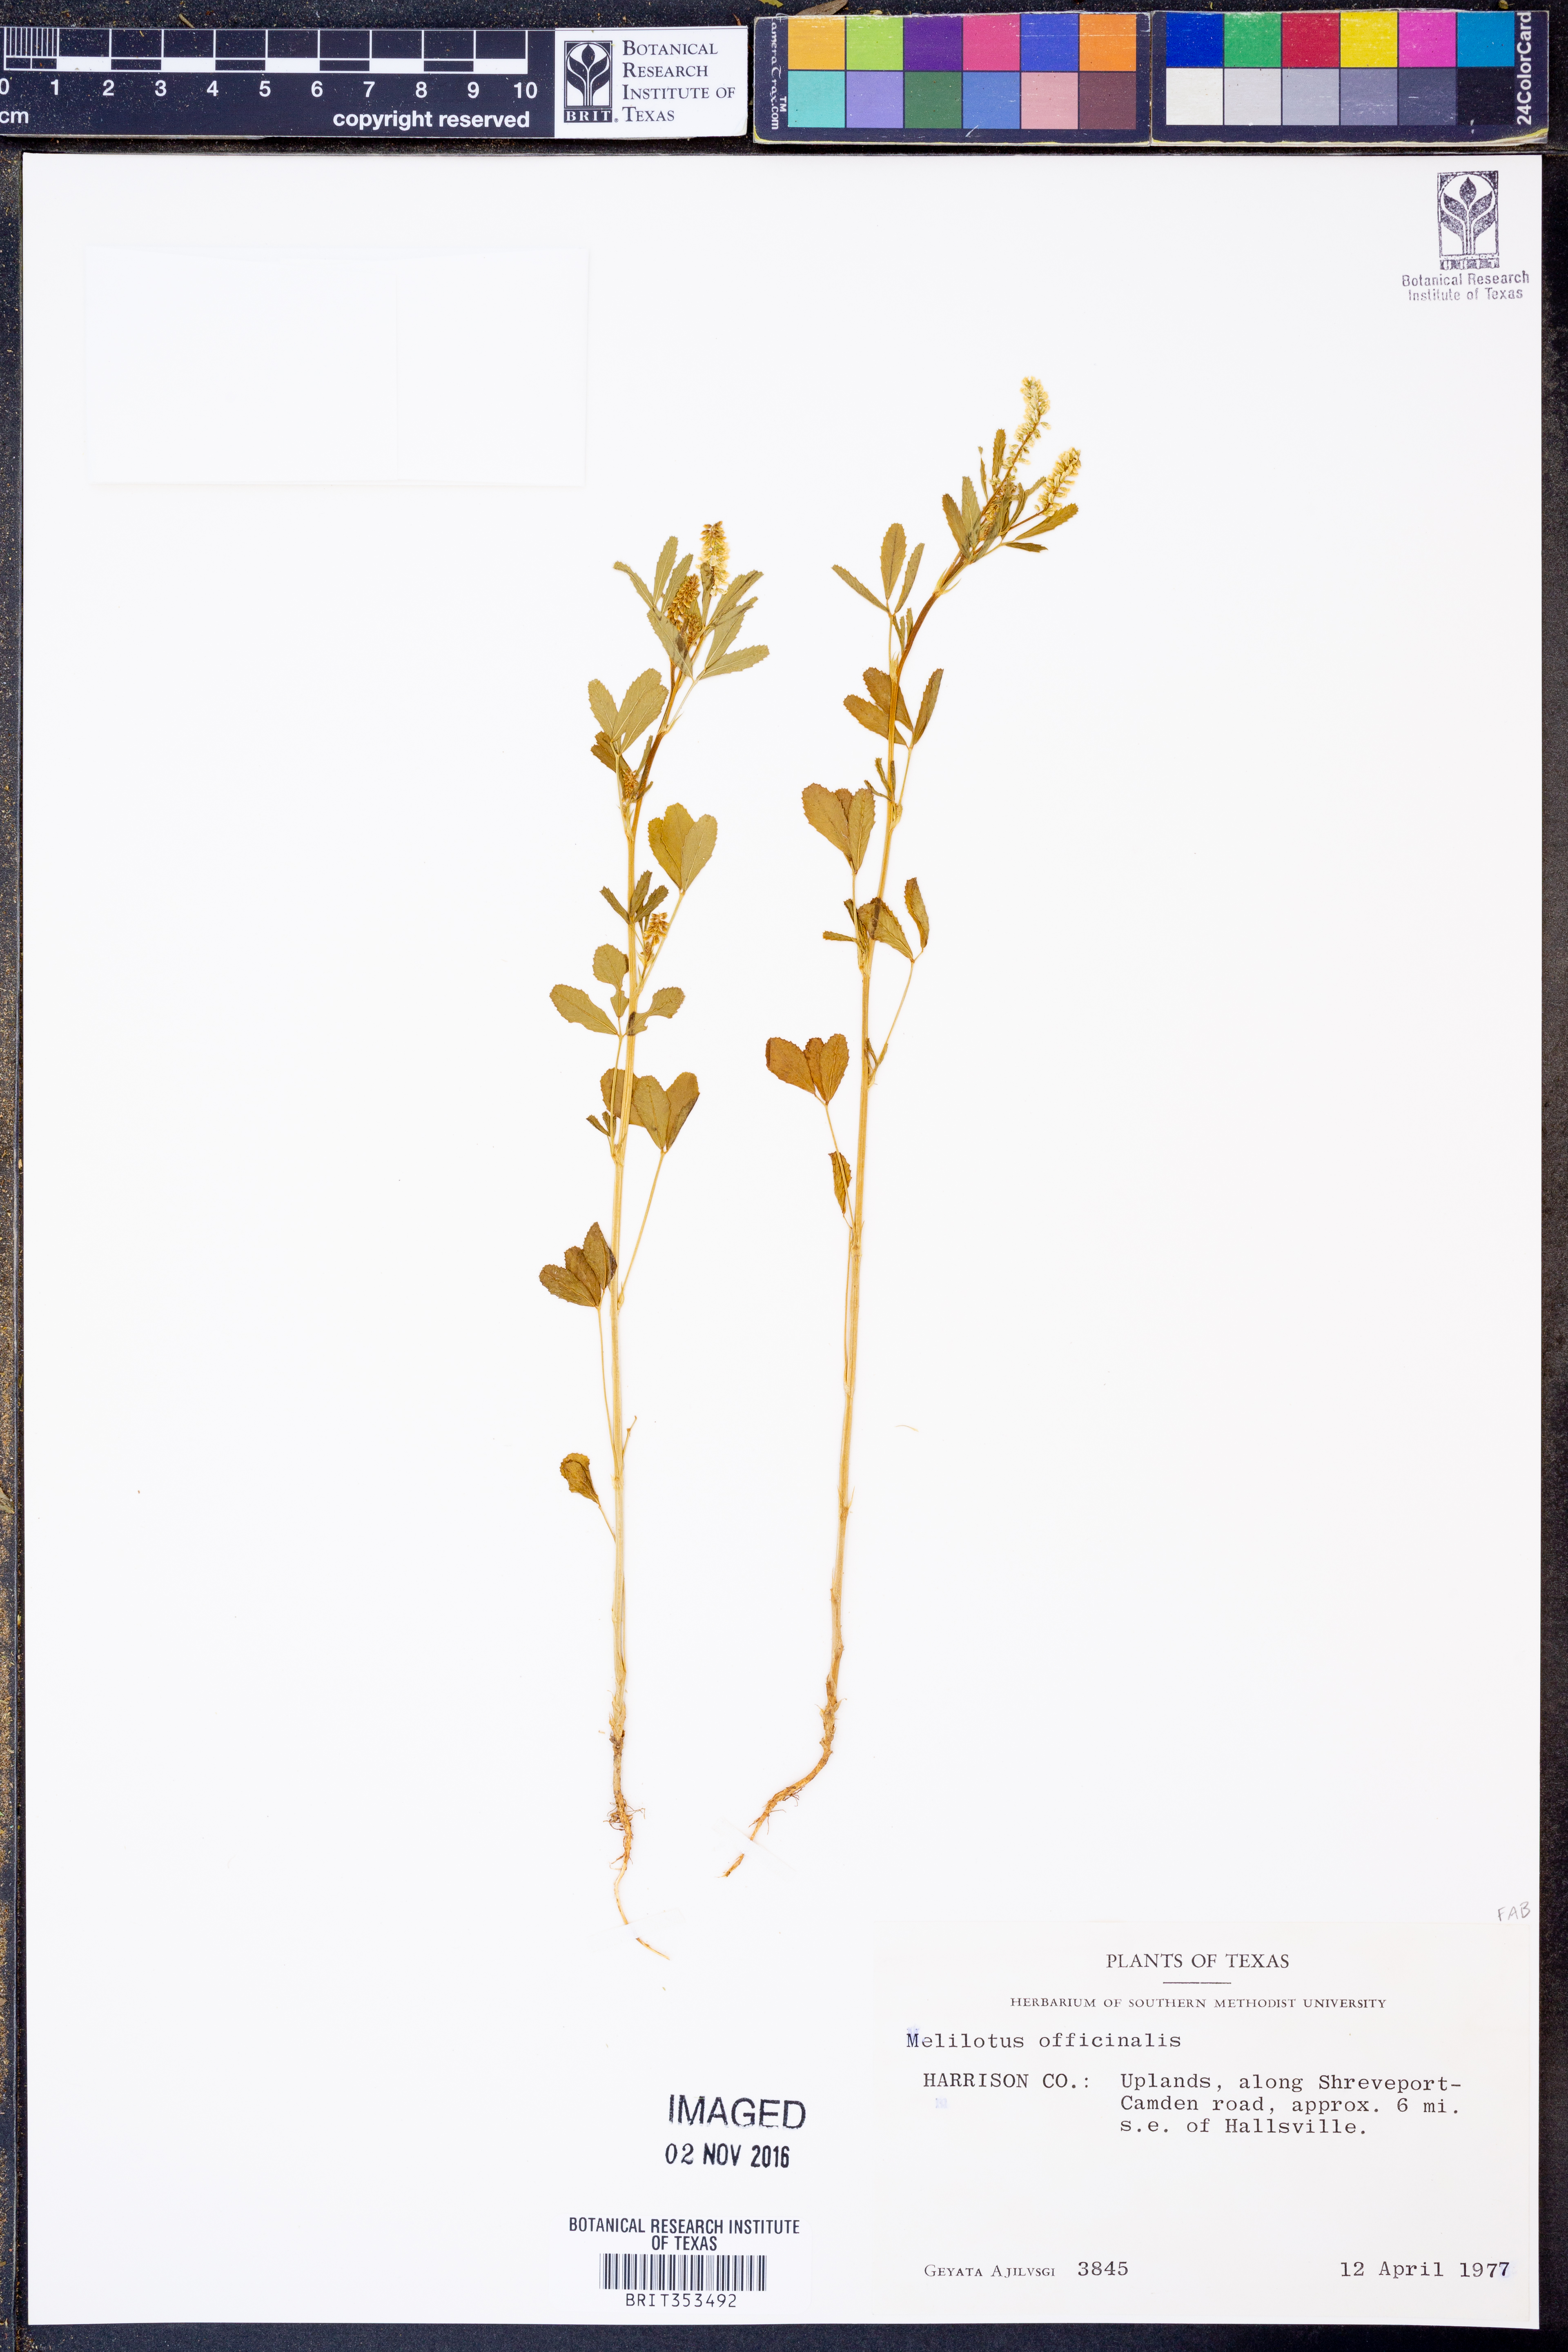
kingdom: Plantae
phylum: Tracheophyta
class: Magnoliopsida
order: Fabales
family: Fabaceae
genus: Melilotus
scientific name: Melilotus officinalis
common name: Sweetclover
